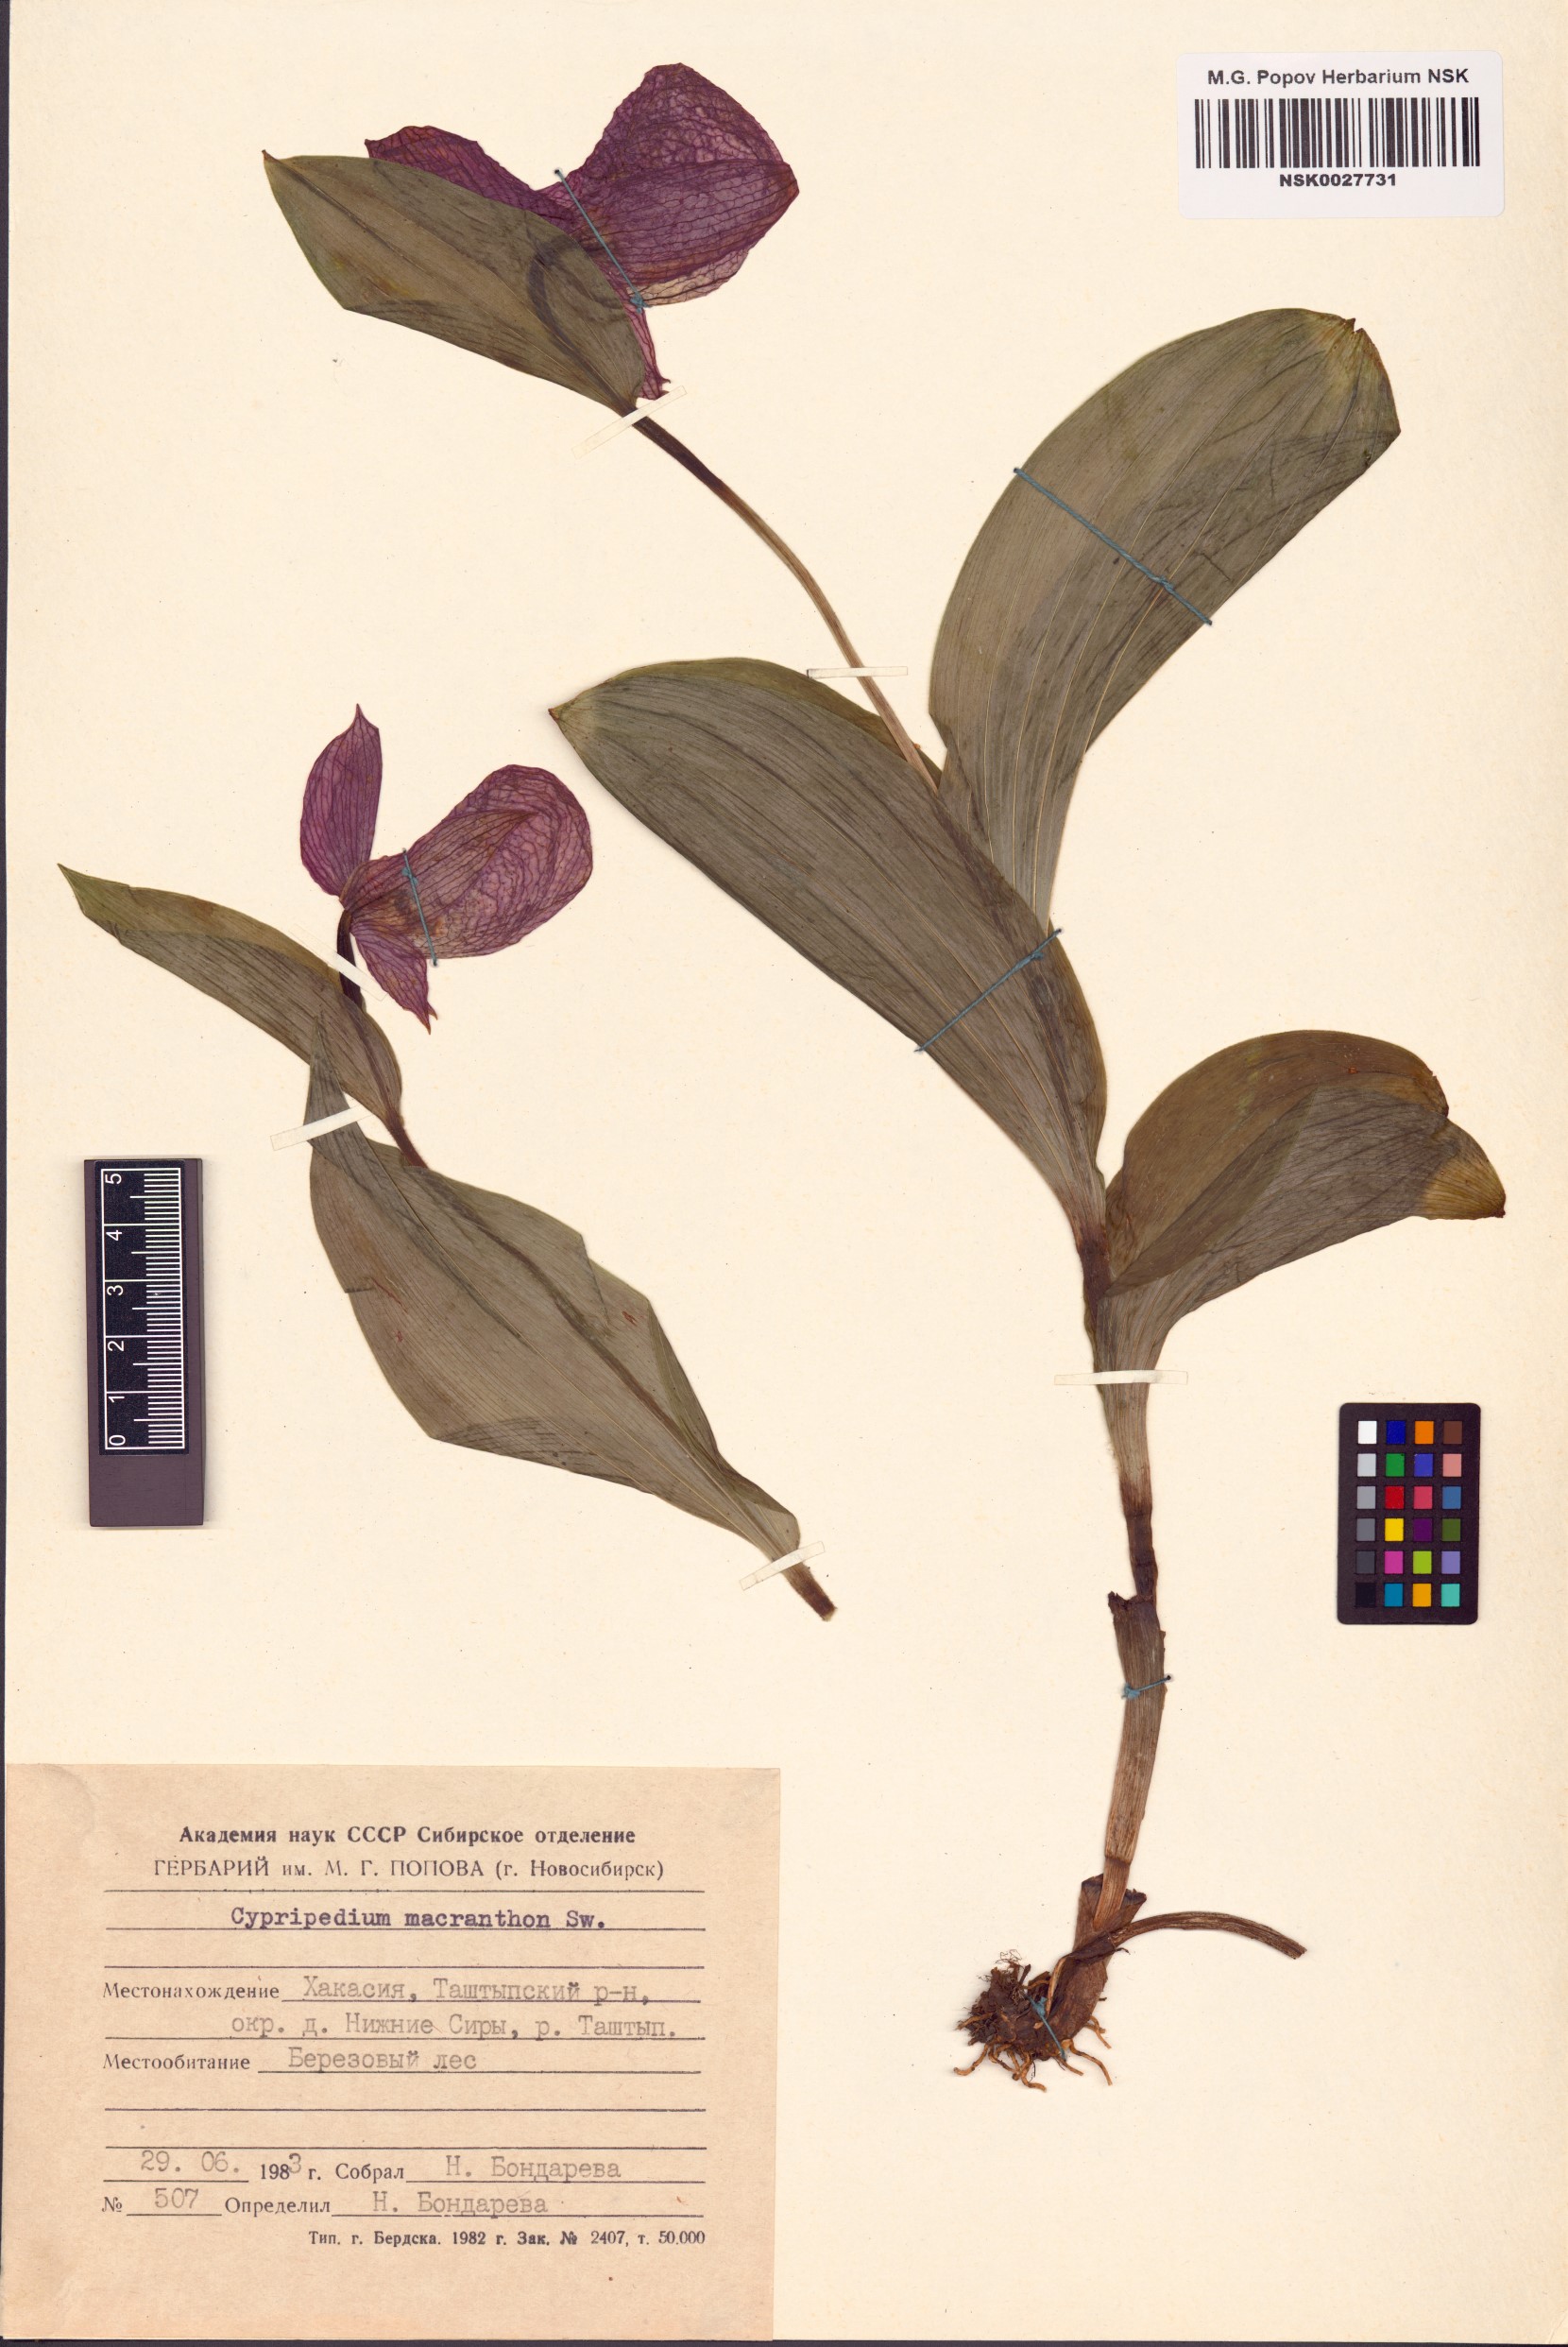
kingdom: Plantae
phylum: Tracheophyta
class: Liliopsida
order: Asparagales
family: Orchidaceae
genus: Cypripedium
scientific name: Cypripedium macranthos
